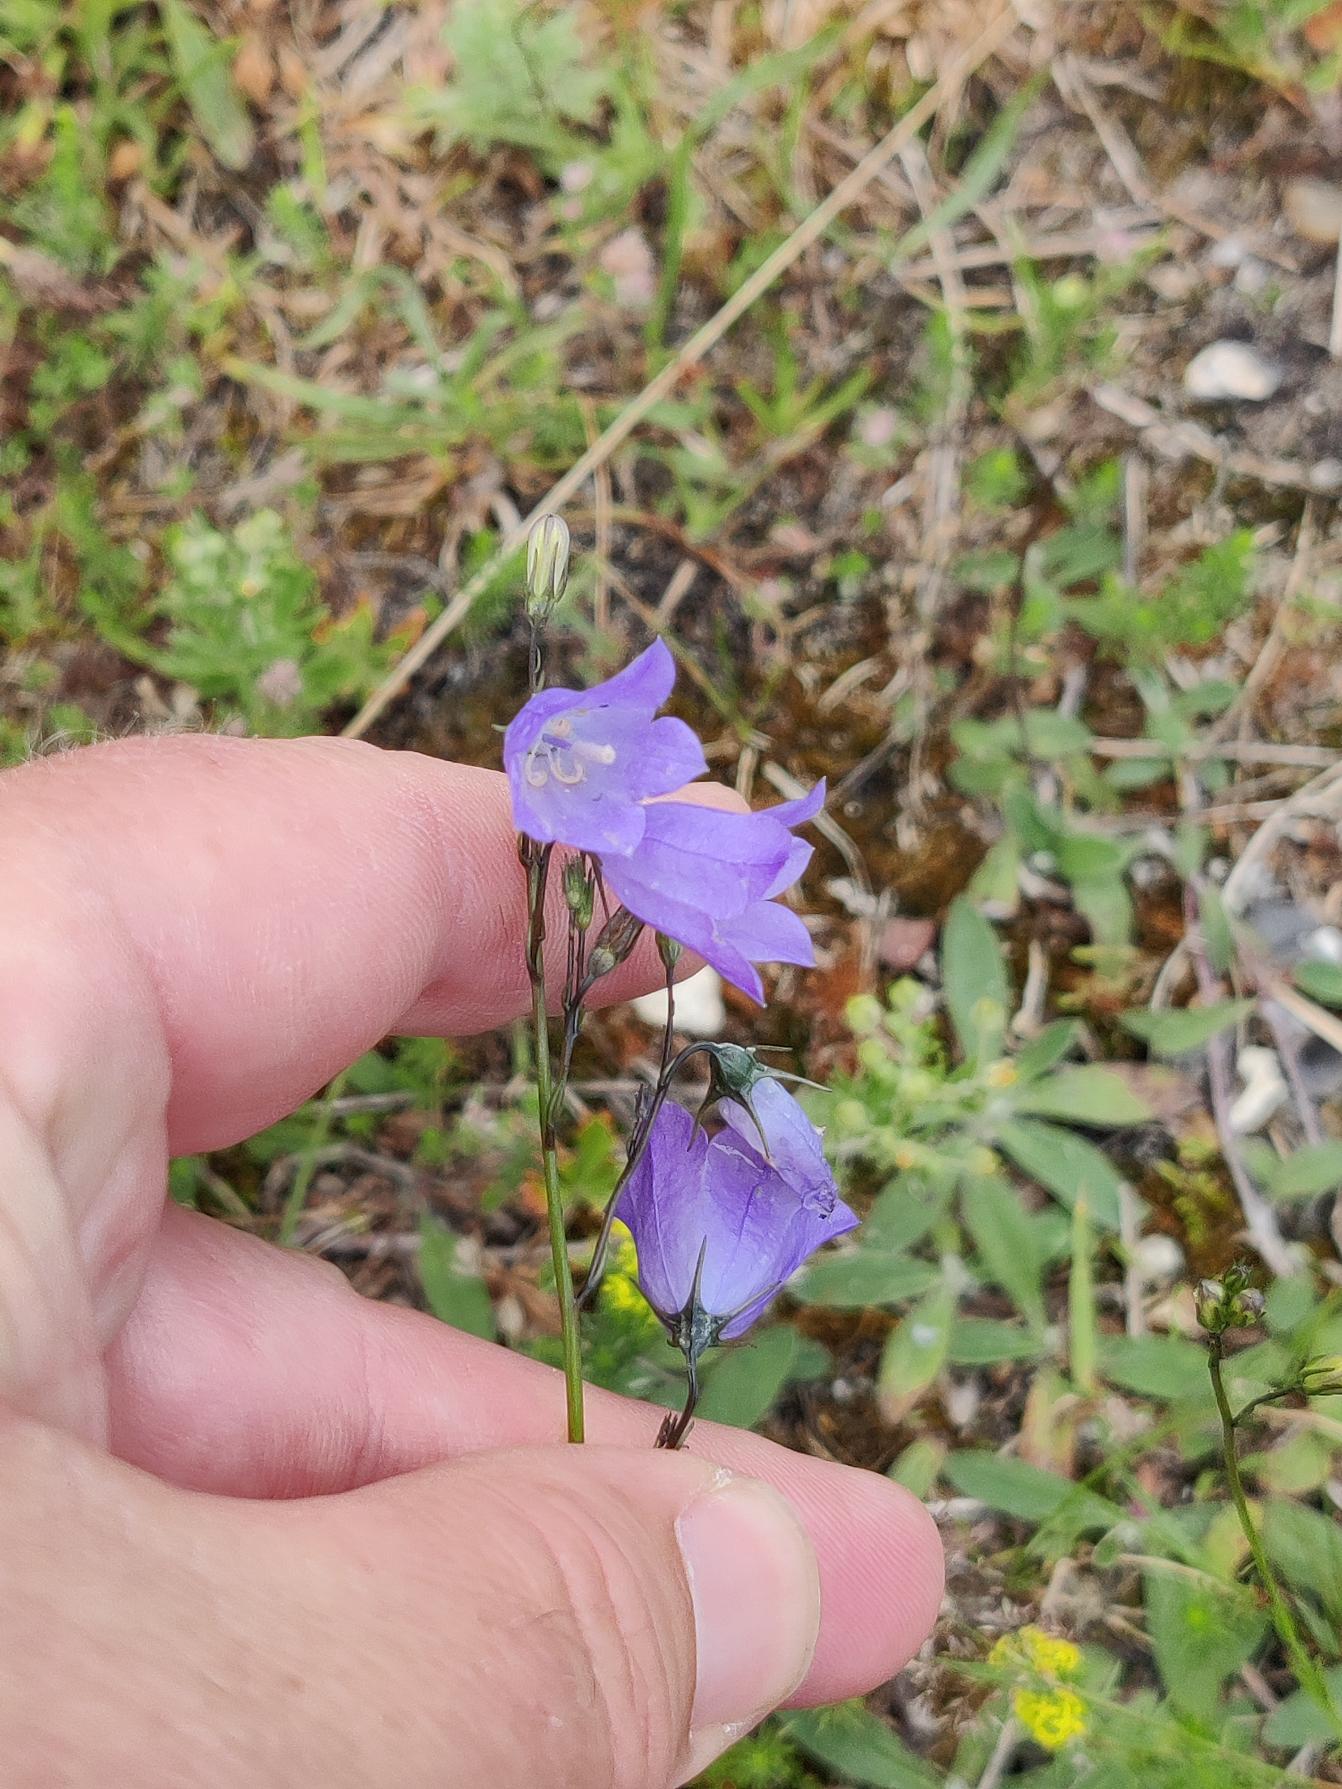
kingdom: Plantae
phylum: Tracheophyta
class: Magnoliopsida
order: Asterales
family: Campanulaceae
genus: Campanula
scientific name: Campanula rotundifolia
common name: Liden klokke
